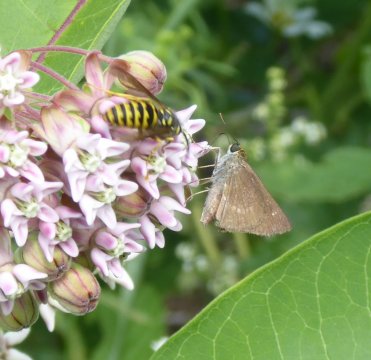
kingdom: Animalia
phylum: Arthropoda
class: Insecta
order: Lepidoptera
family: Hesperiidae
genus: Euphyes
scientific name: Euphyes vestris
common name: Dun Skipper
